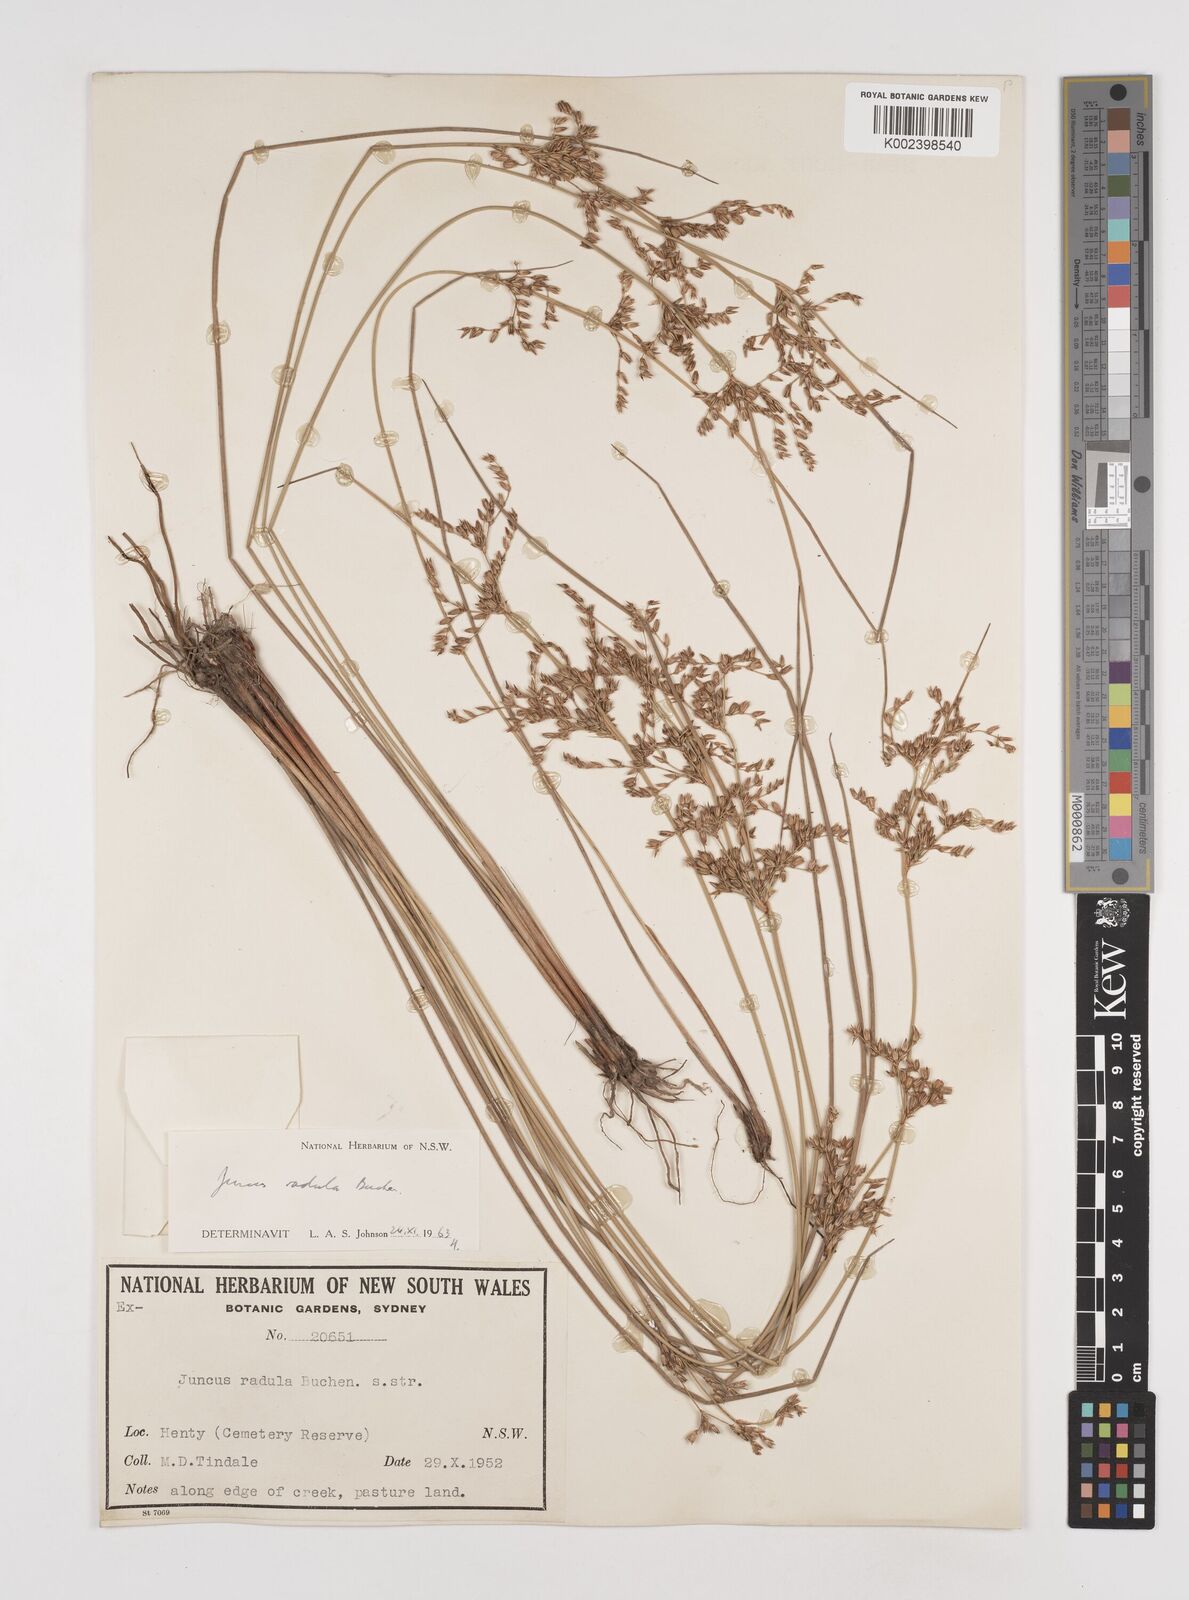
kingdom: Plantae
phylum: Tracheophyta
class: Liliopsida
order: Poales
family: Juncaceae
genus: Juncus
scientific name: Juncus radula
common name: Hoary rush
